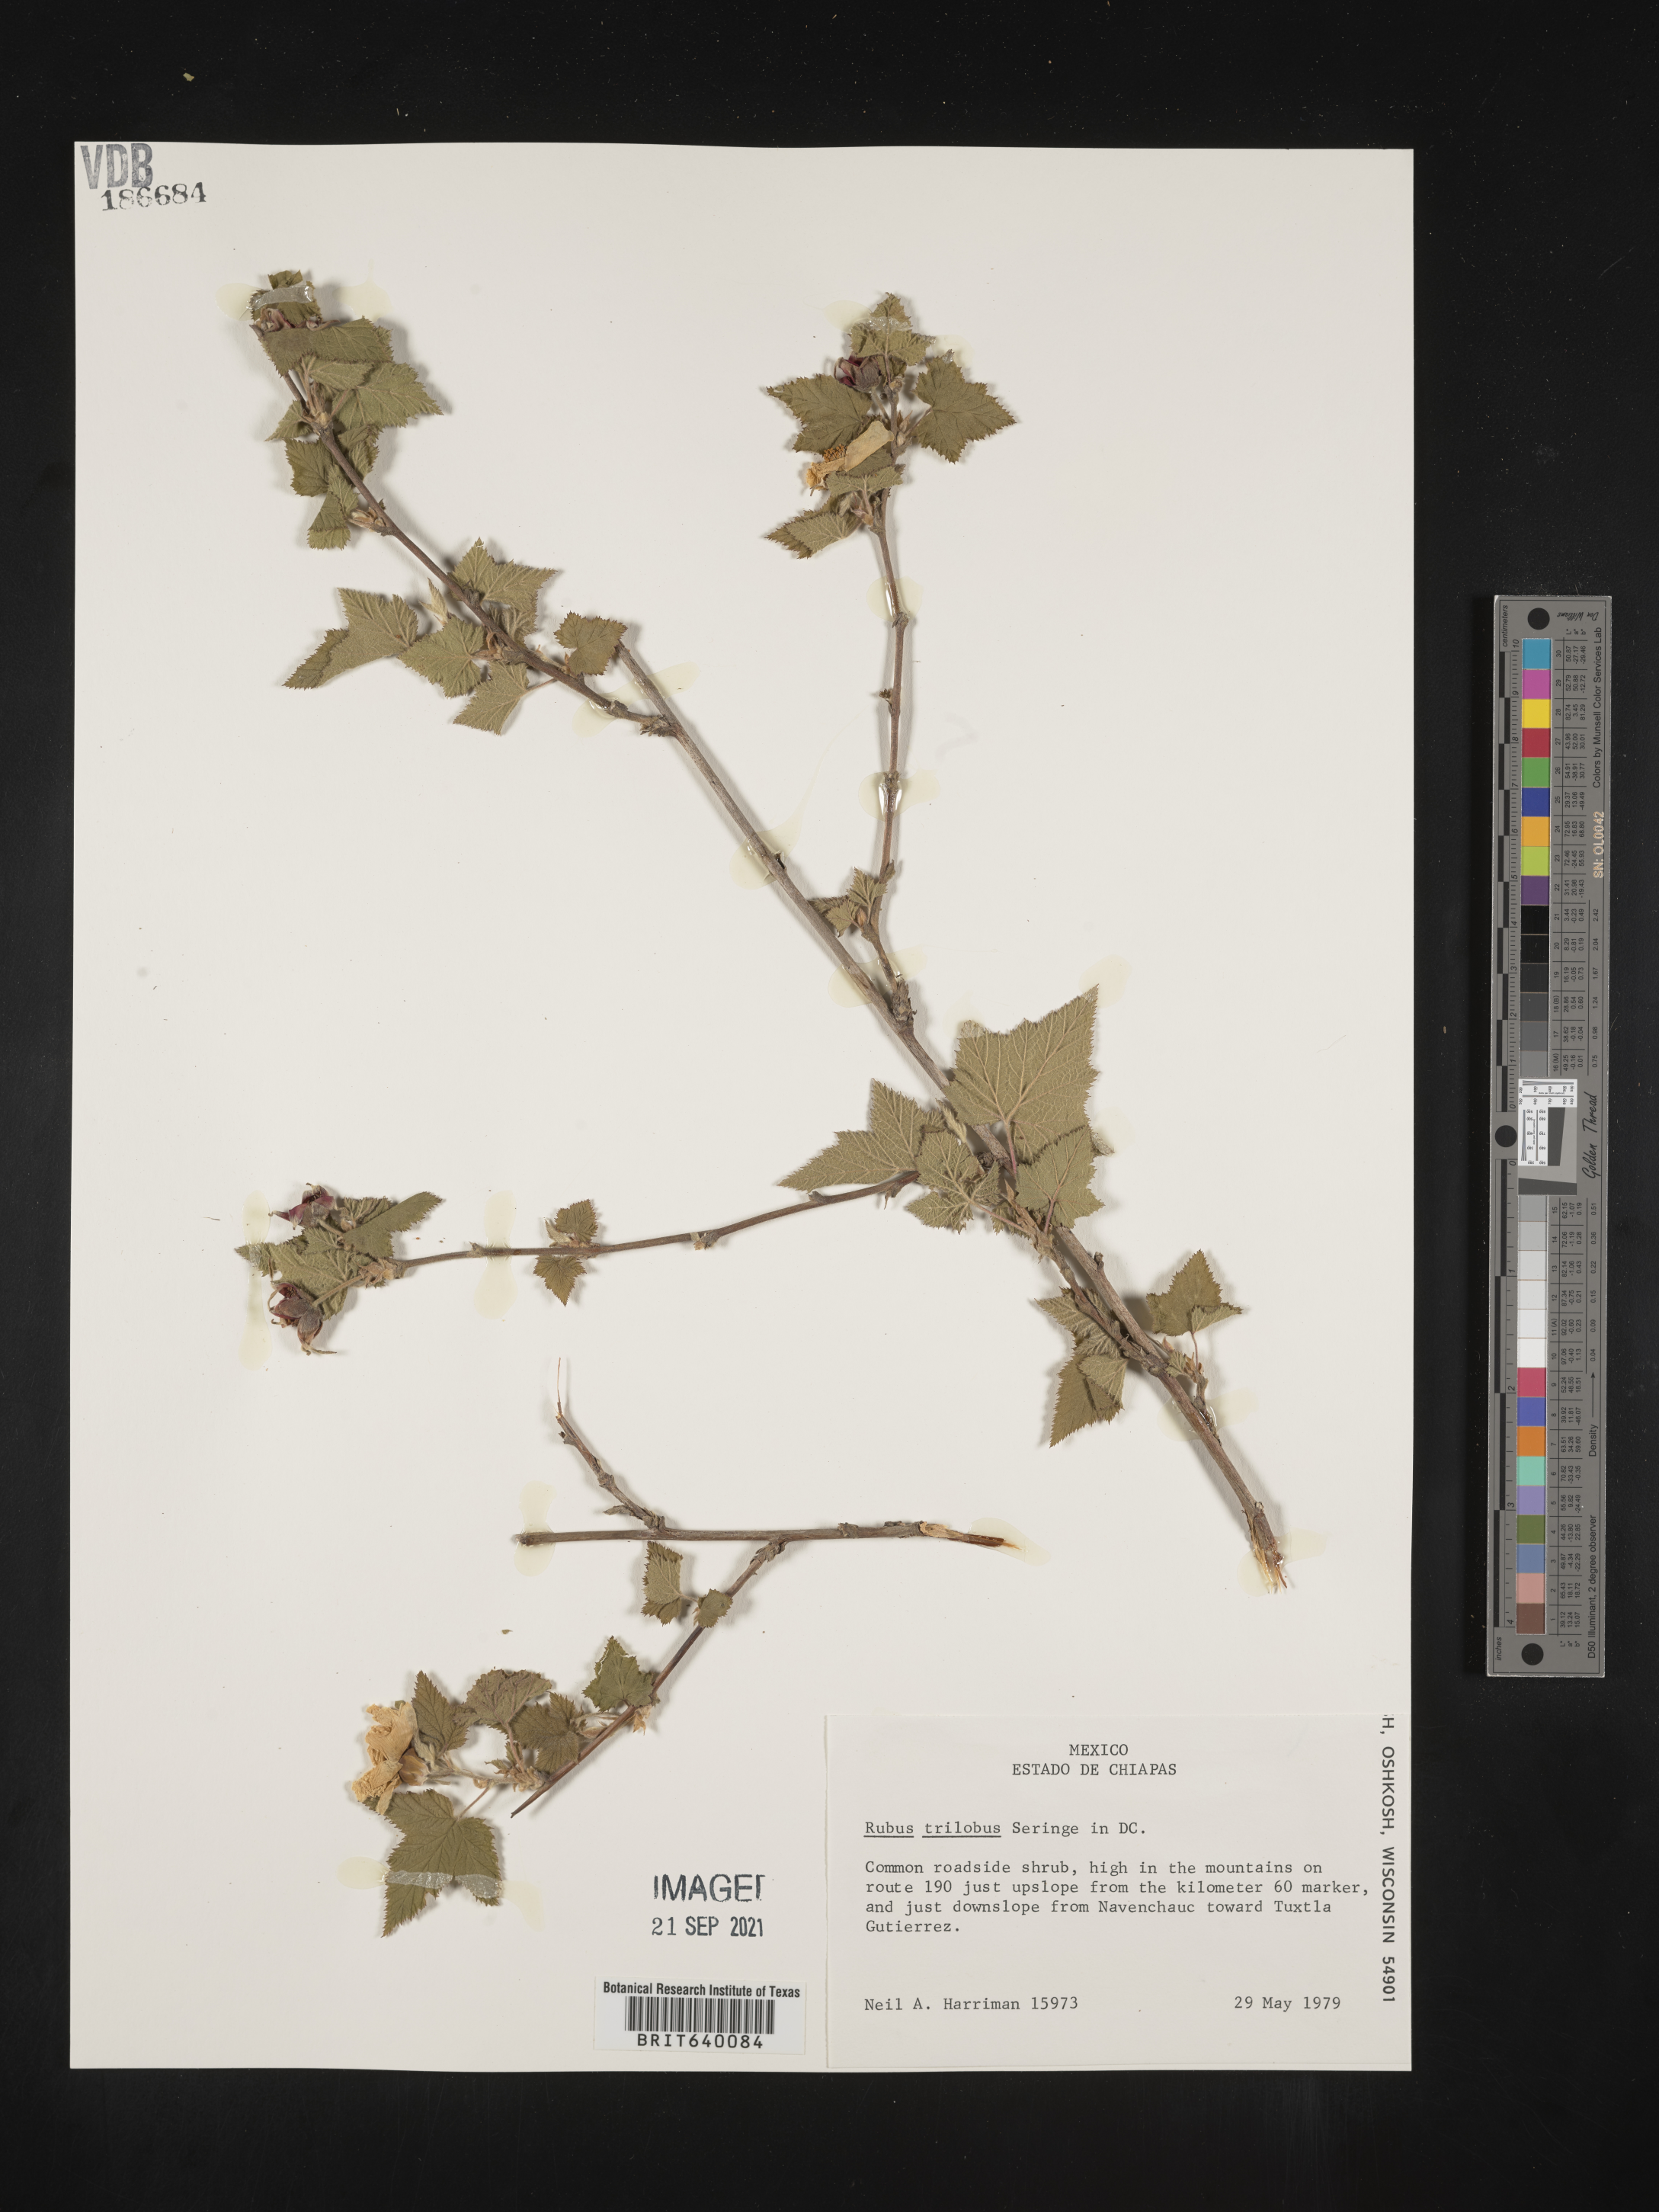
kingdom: Plantae
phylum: Tracheophyta
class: Magnoliopsida
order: Rosales
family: Rosaceae
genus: Rubus
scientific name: Rubus
